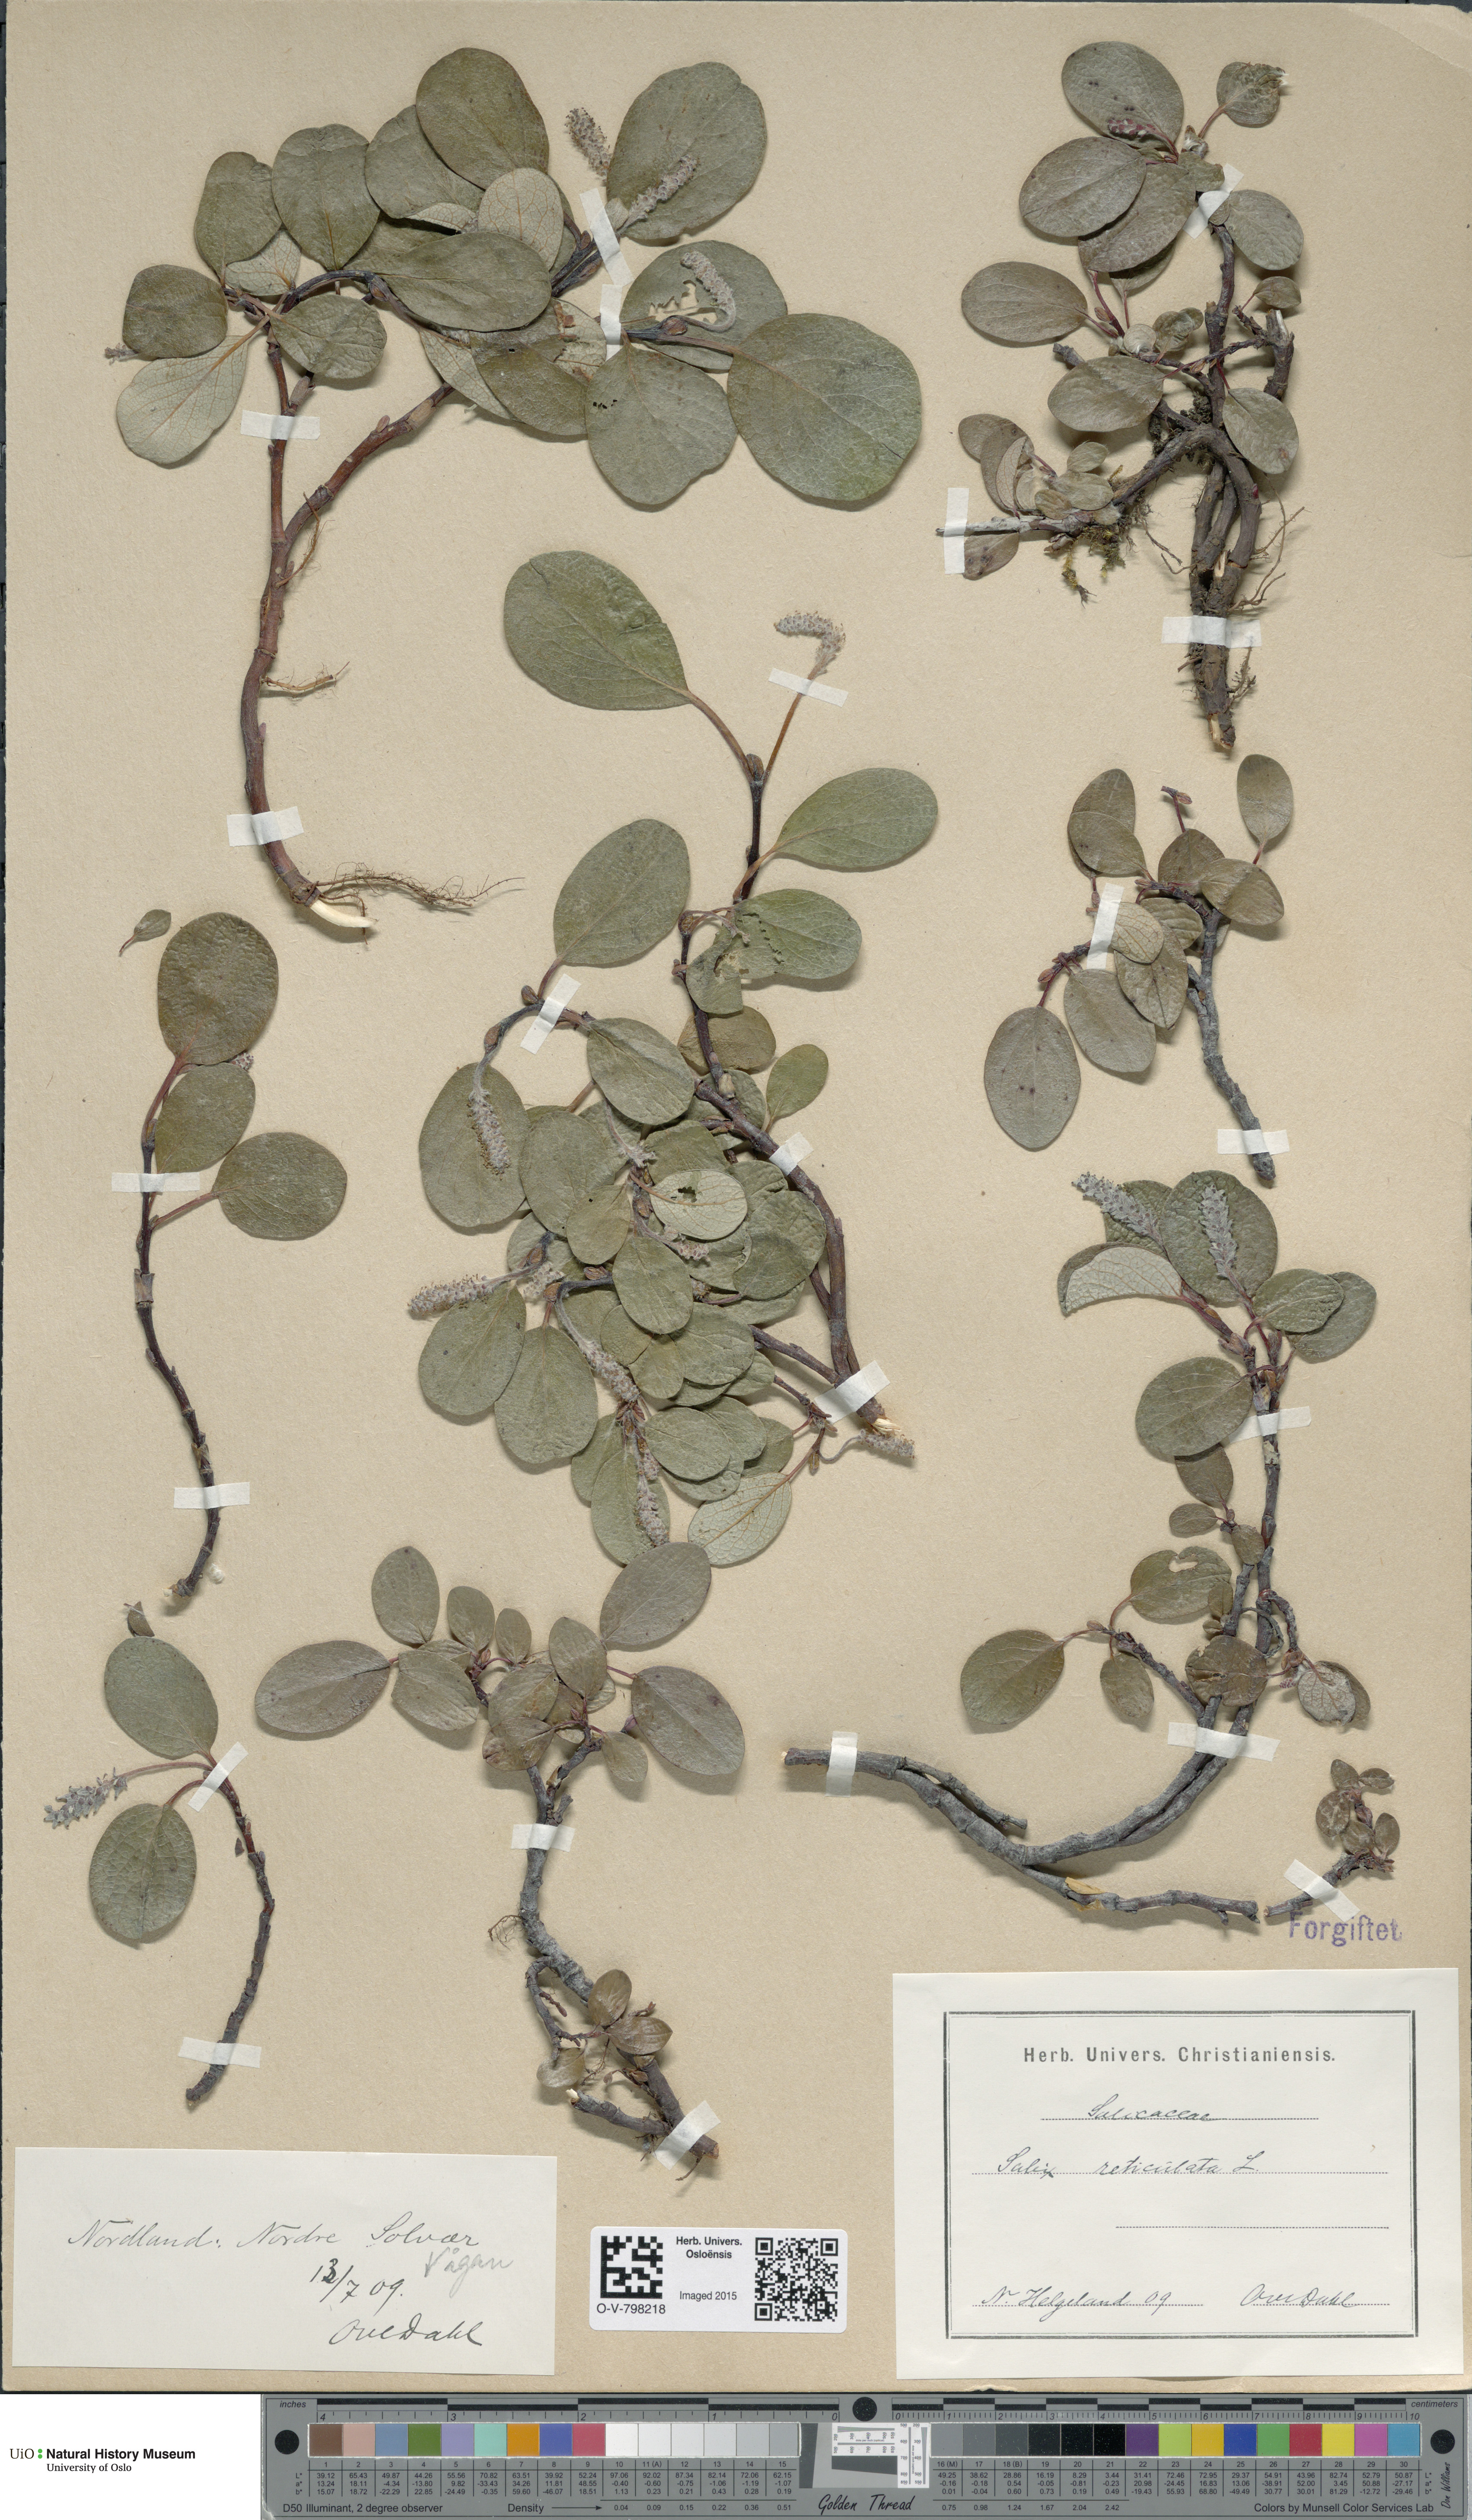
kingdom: Plantae
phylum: Tracheophyta
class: Magnoliopsida
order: Malpighiales
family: Salicaceae
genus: Salix
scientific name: Salix reticulata
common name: Net-leaved willow
